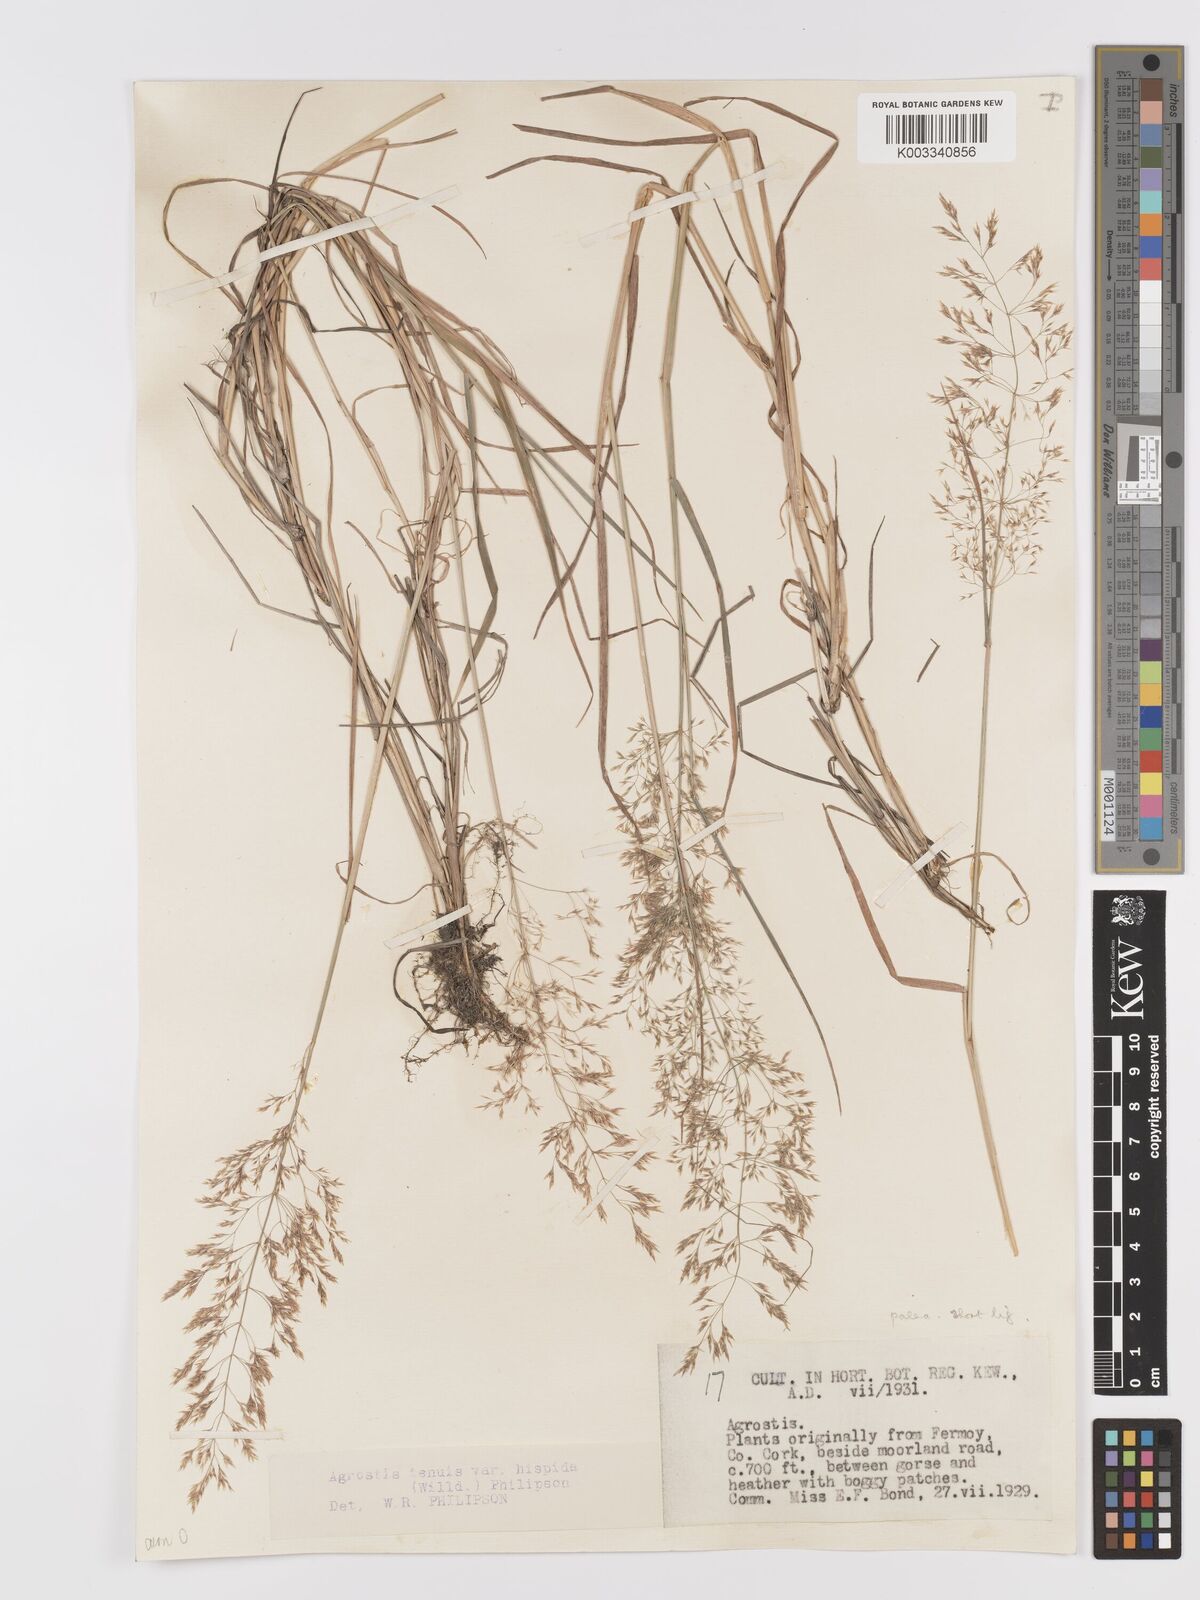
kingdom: Plantae
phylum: Tracheophyta
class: Liliopsida
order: Poales
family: Poaceae
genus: Agrostis
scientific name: Agrostis capillaris
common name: Colonial bentgrass
